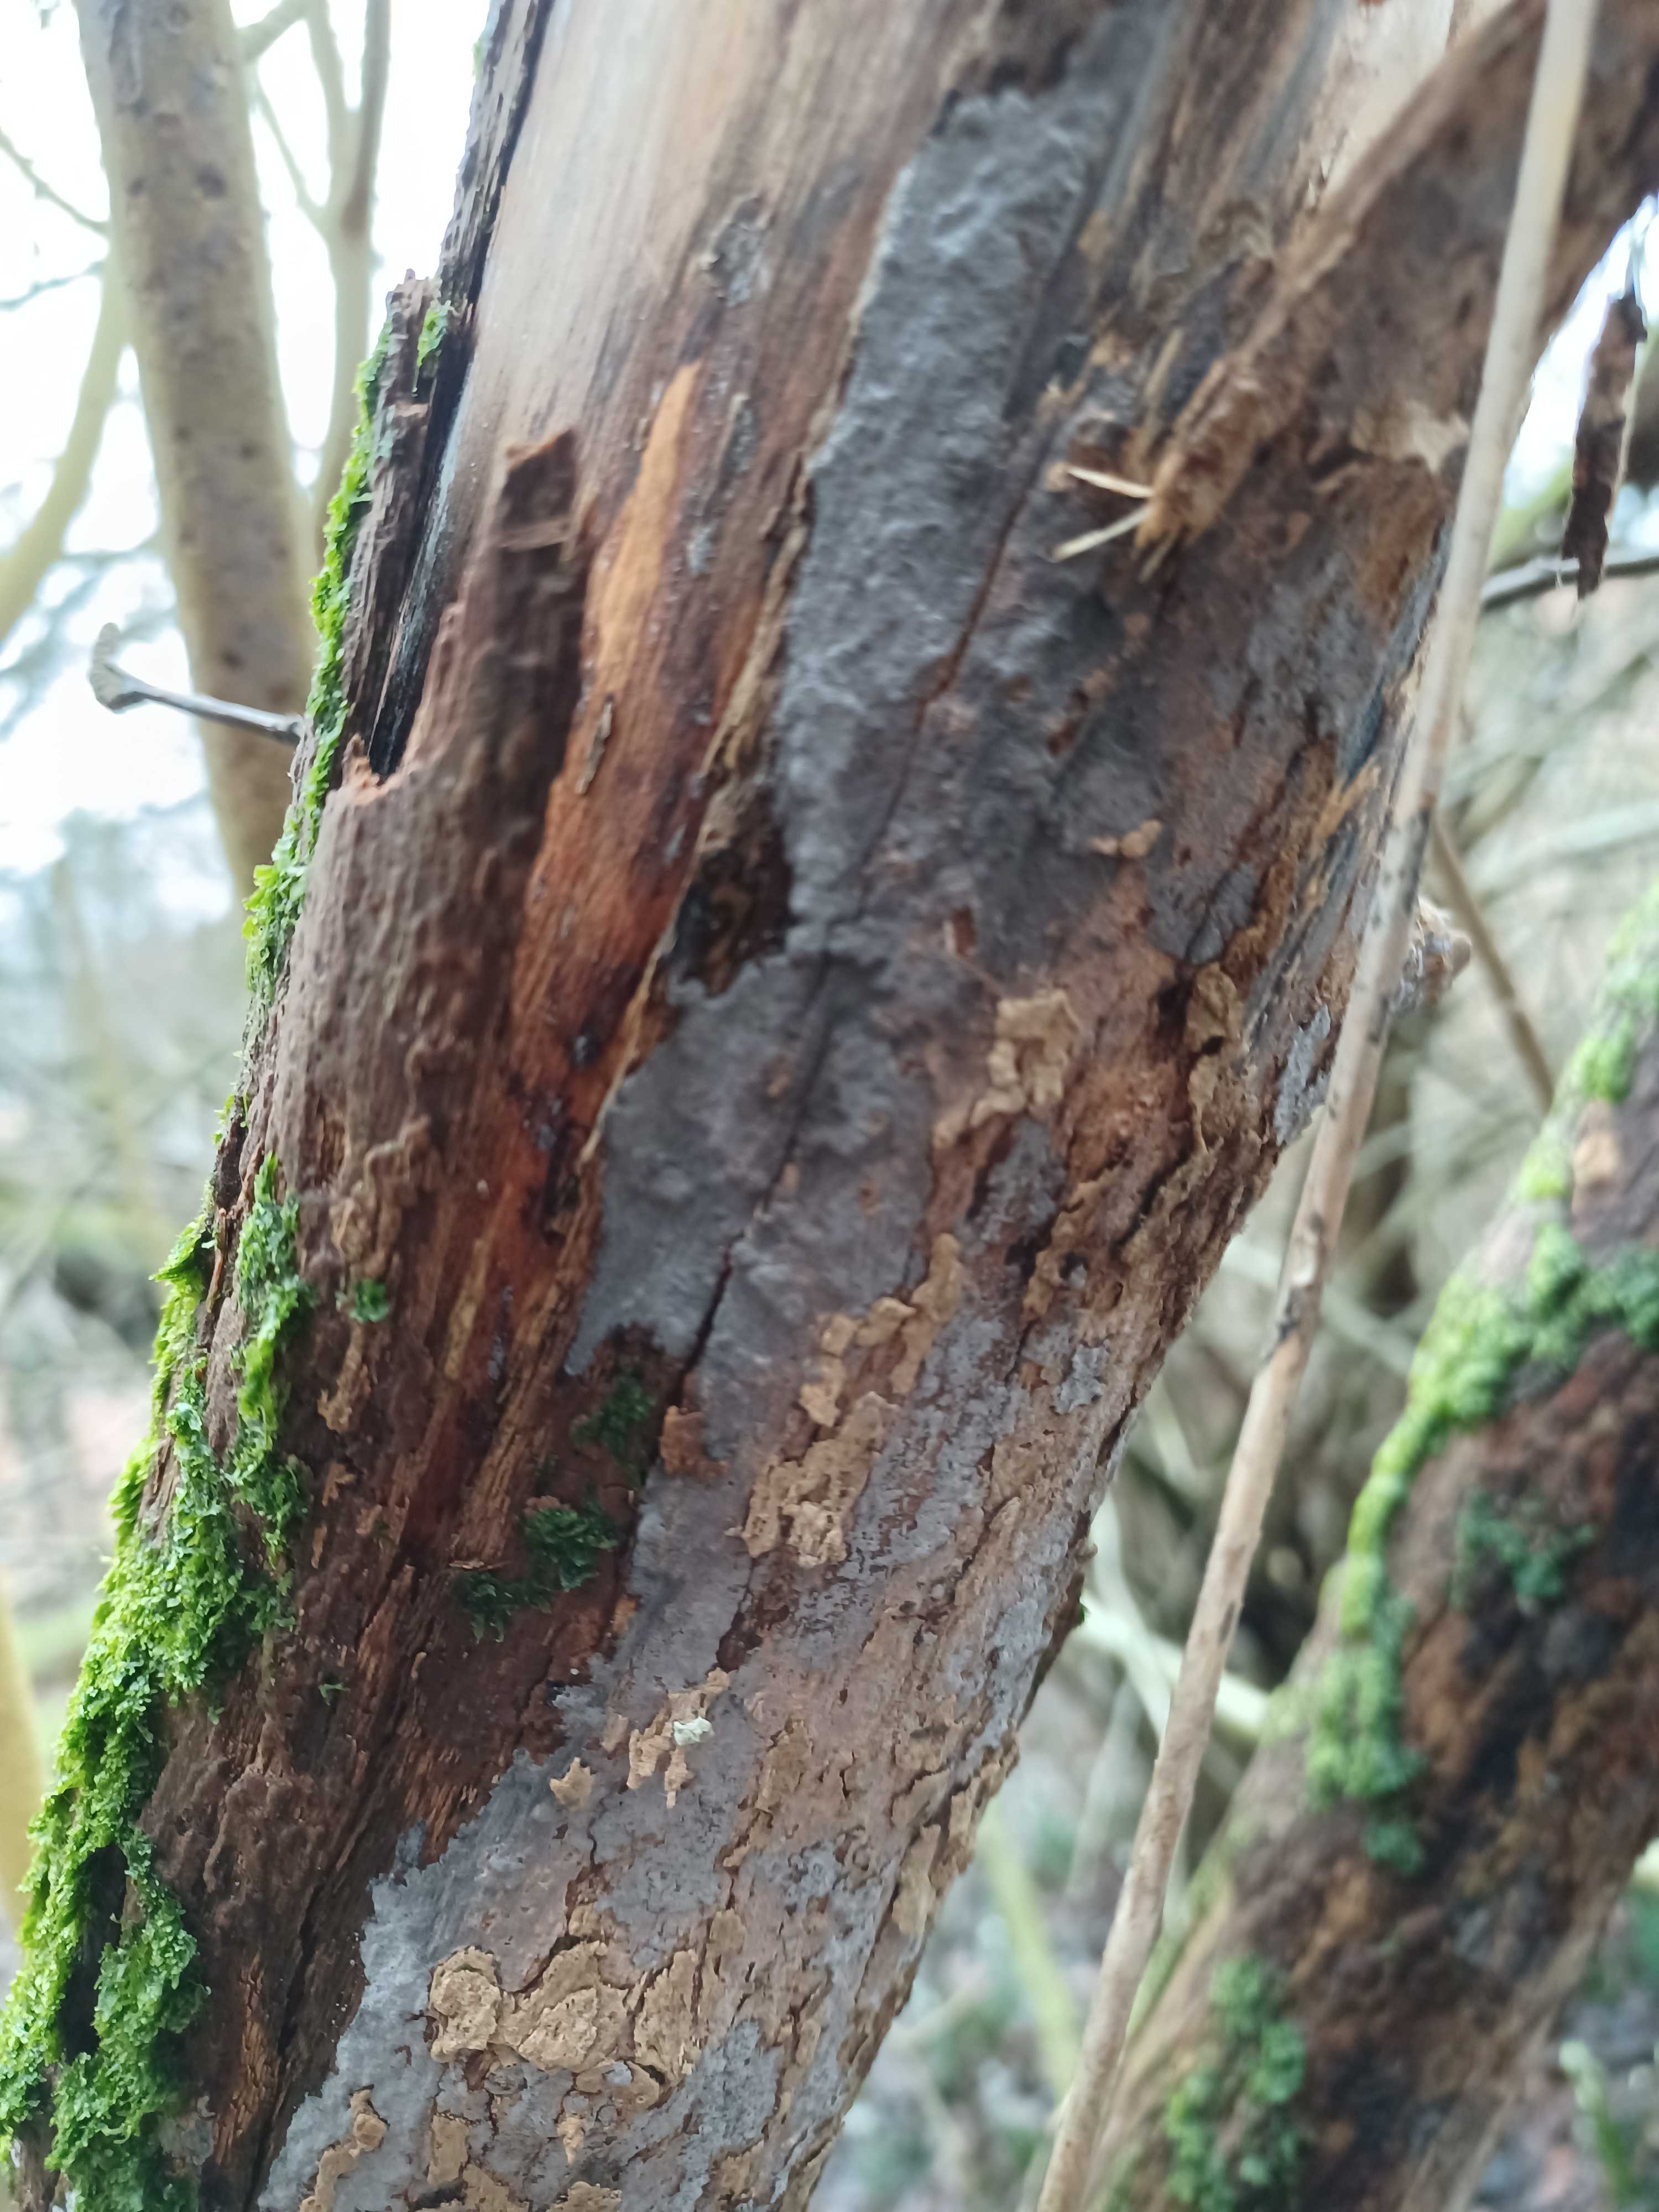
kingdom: Fungi
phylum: Basidiomycota
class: Agaricomycetes
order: Russulales
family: Peniophoraceae
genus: Peniophora
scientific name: Peniophora
